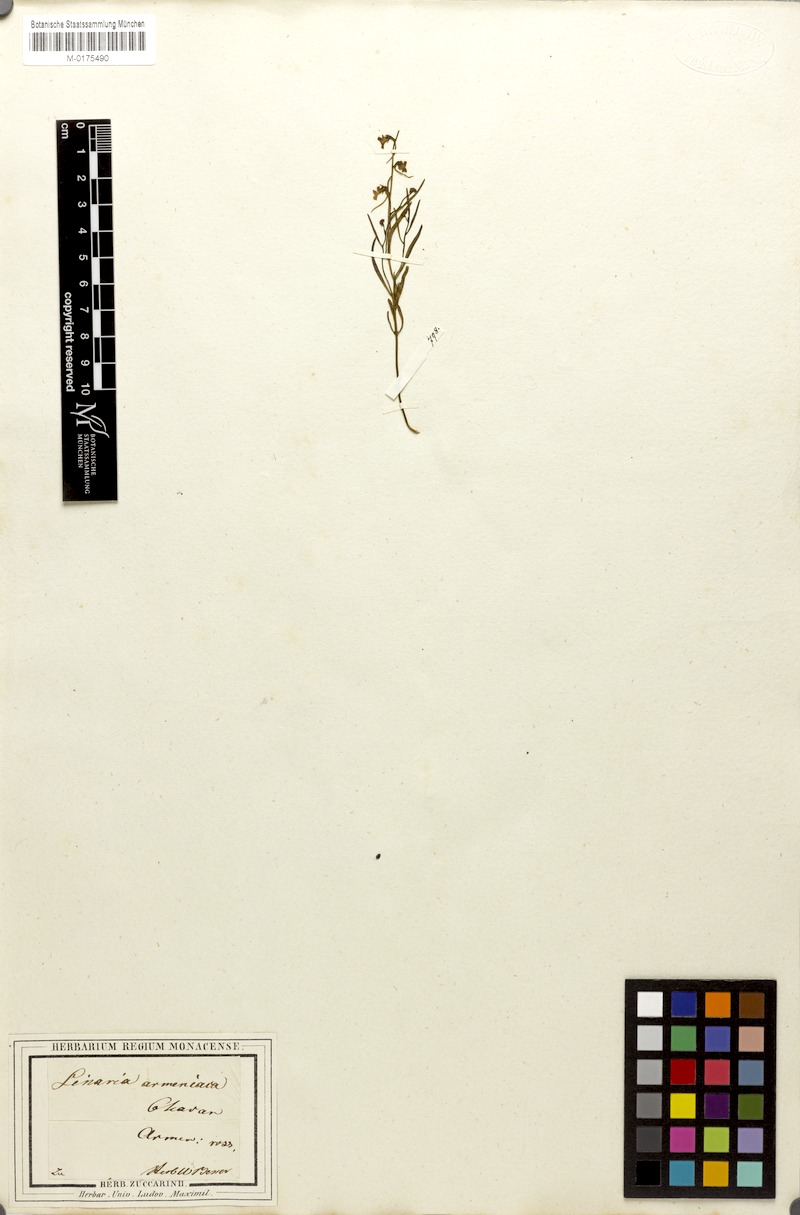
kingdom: Plantae
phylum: Tracheophyta
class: Magnoliopsida
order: Lamiales
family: Plantaginaceae
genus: Linaria
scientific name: Linaria armeniaca
